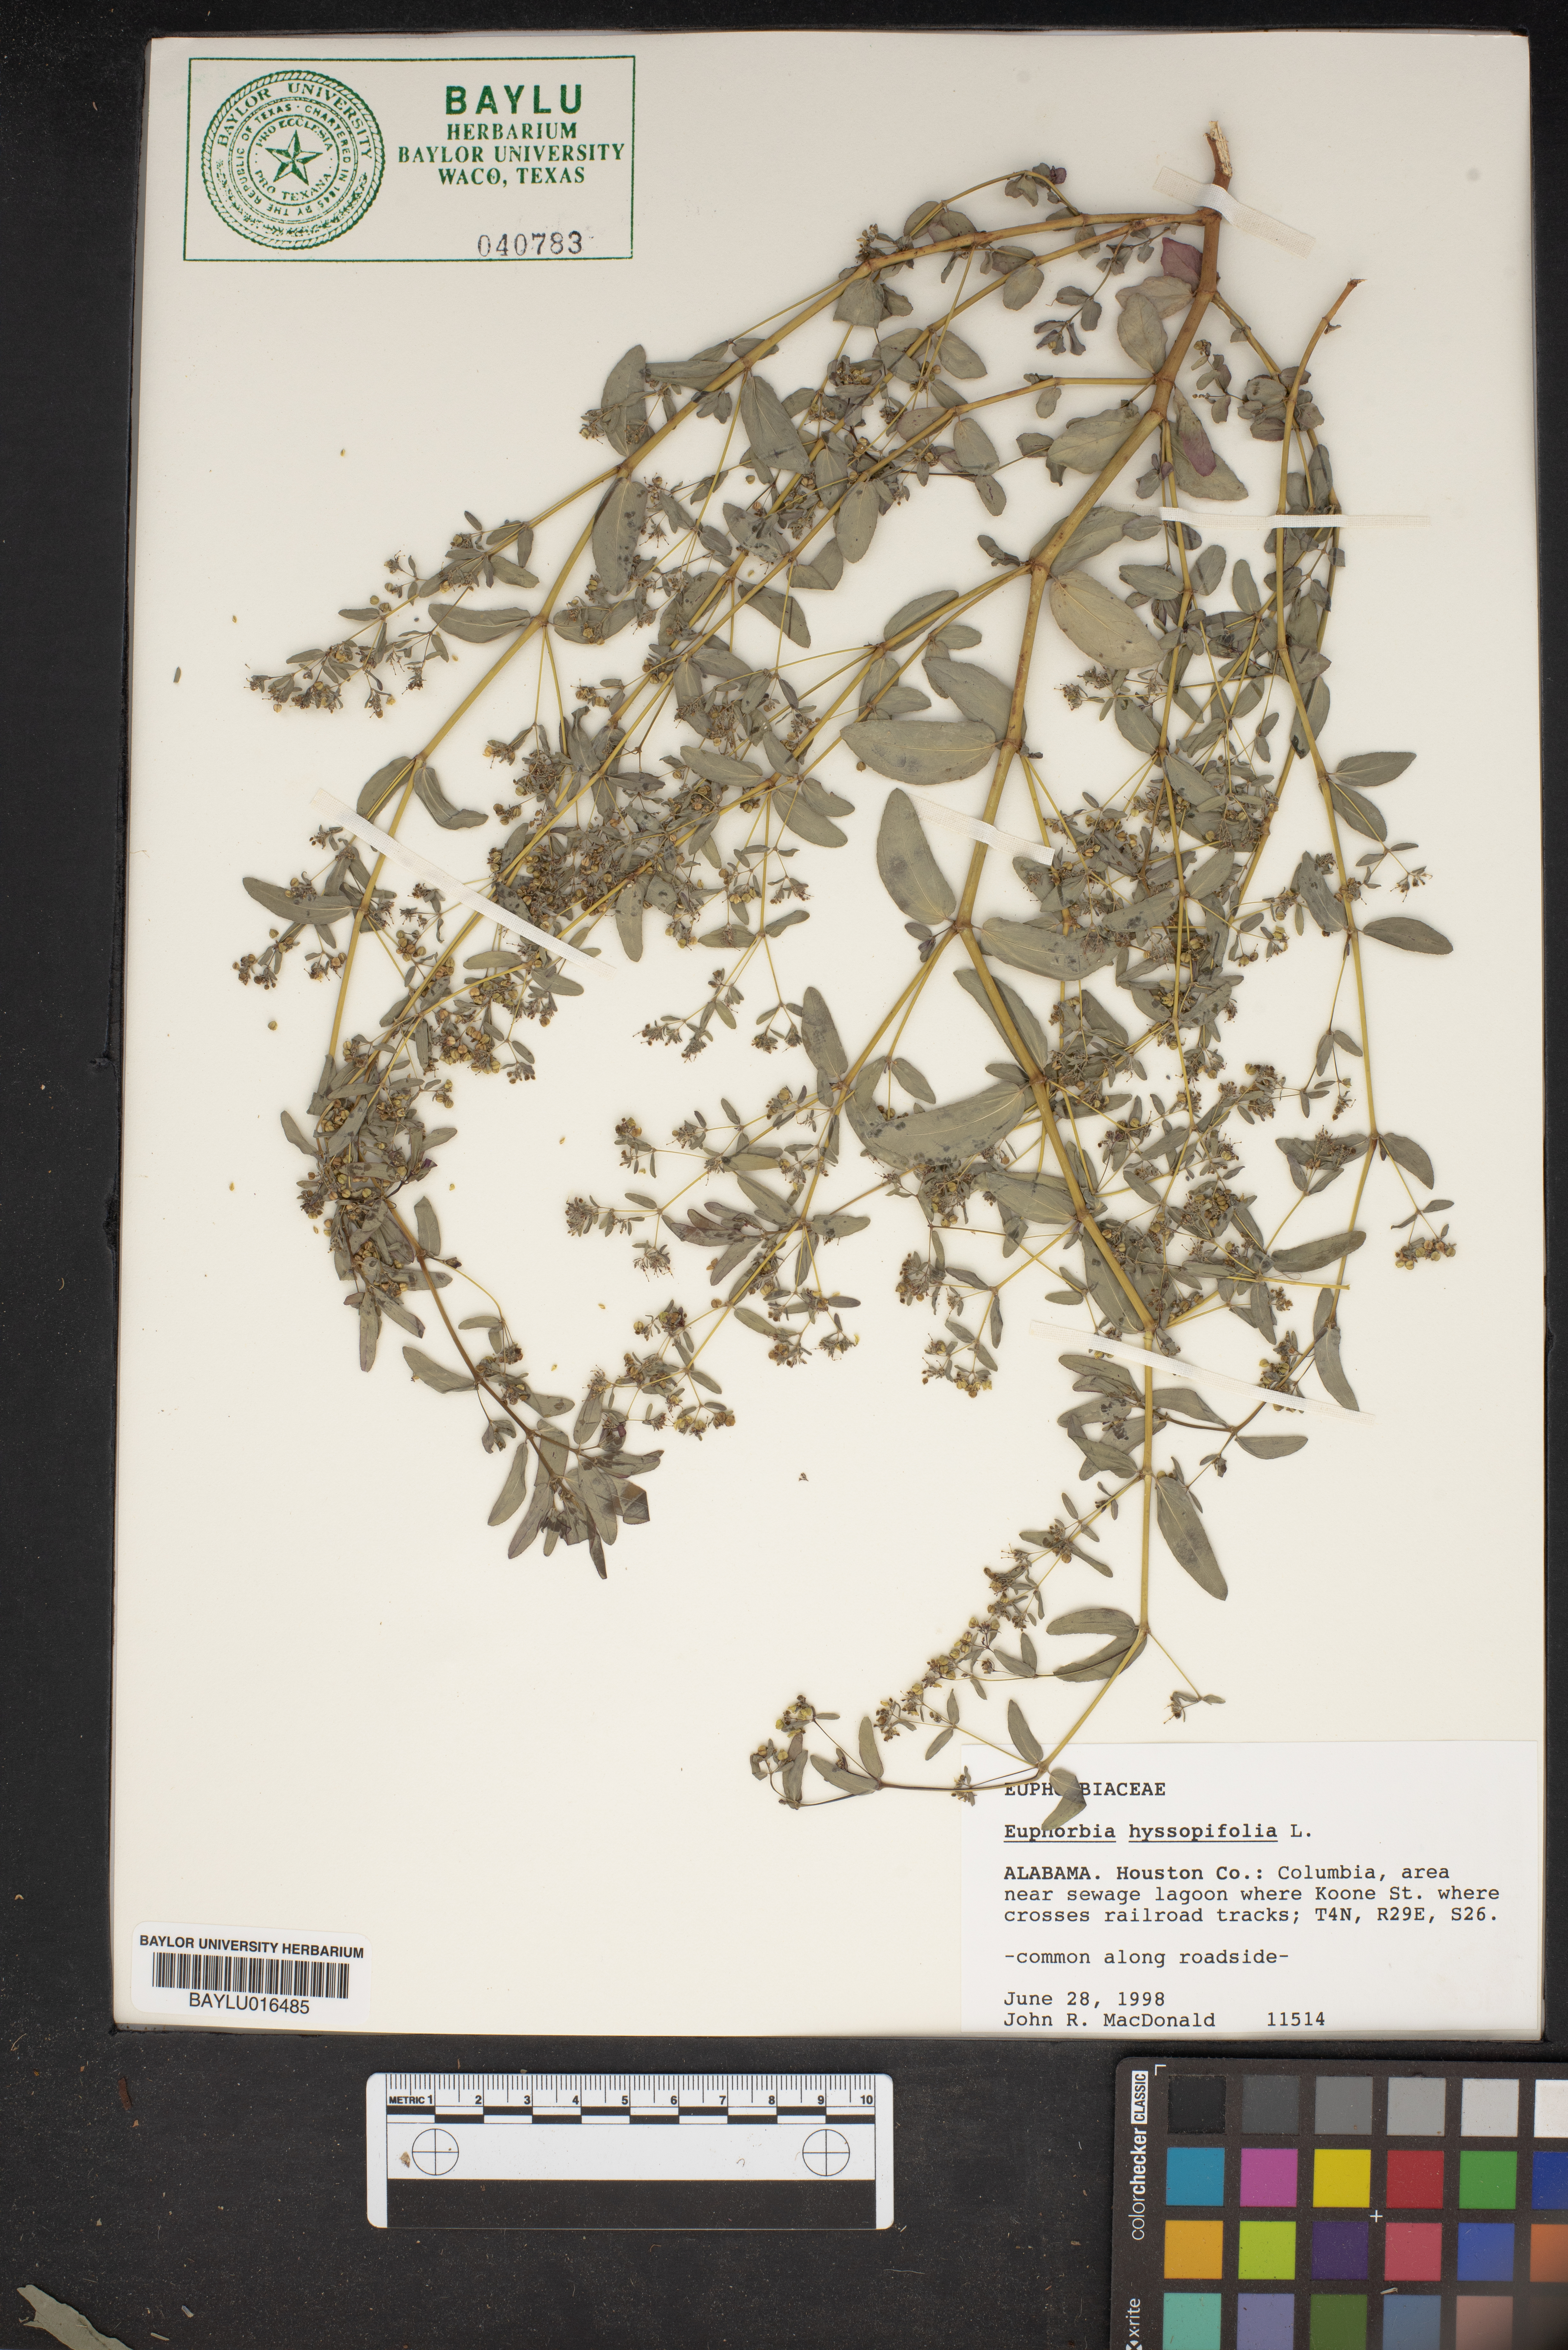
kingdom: Plantae
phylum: Tracheophyta
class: Magnoliopsida
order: Malpighiales
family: Euphorbiaceae
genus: Euphorbia
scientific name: Euphorbia hyssopifolia
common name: Hyssopleaf sandmat
